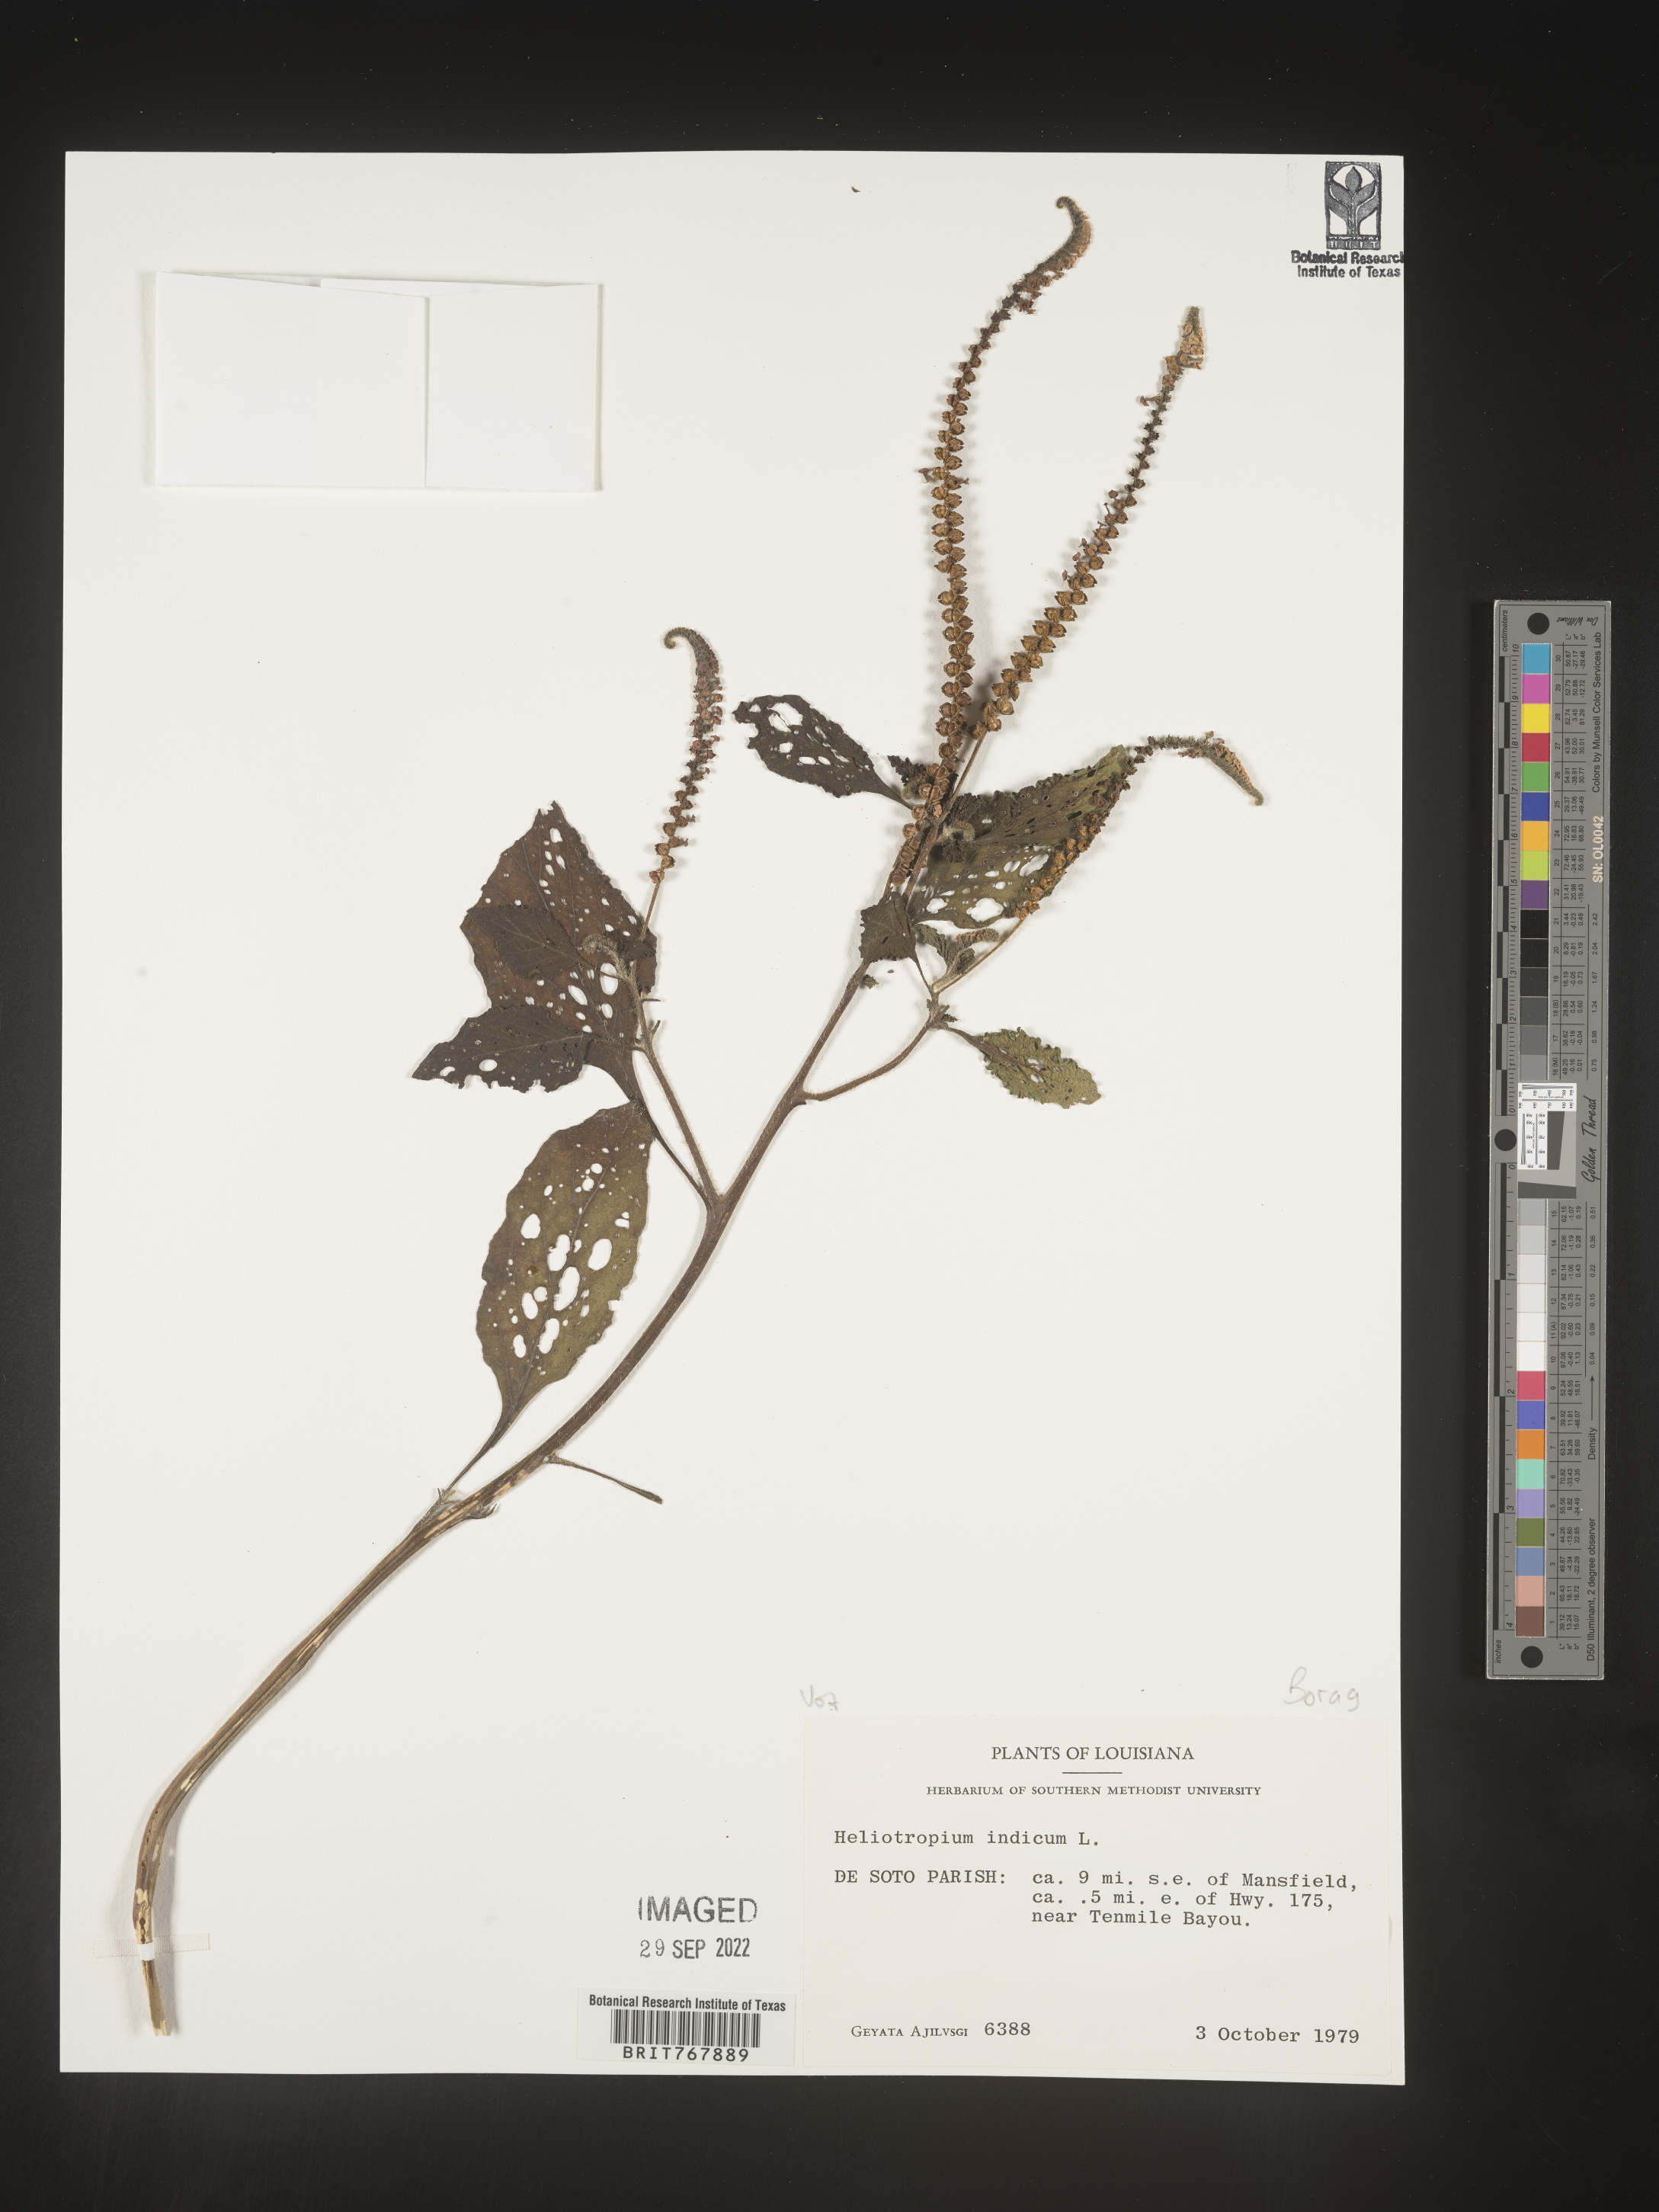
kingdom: Plantae
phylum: Tracheophyta
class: Magnoliopsida
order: Boraginales
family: Heliotropiaceae
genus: Heliotropium
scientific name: Heliotropium indicum
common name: Indian heliotrope
